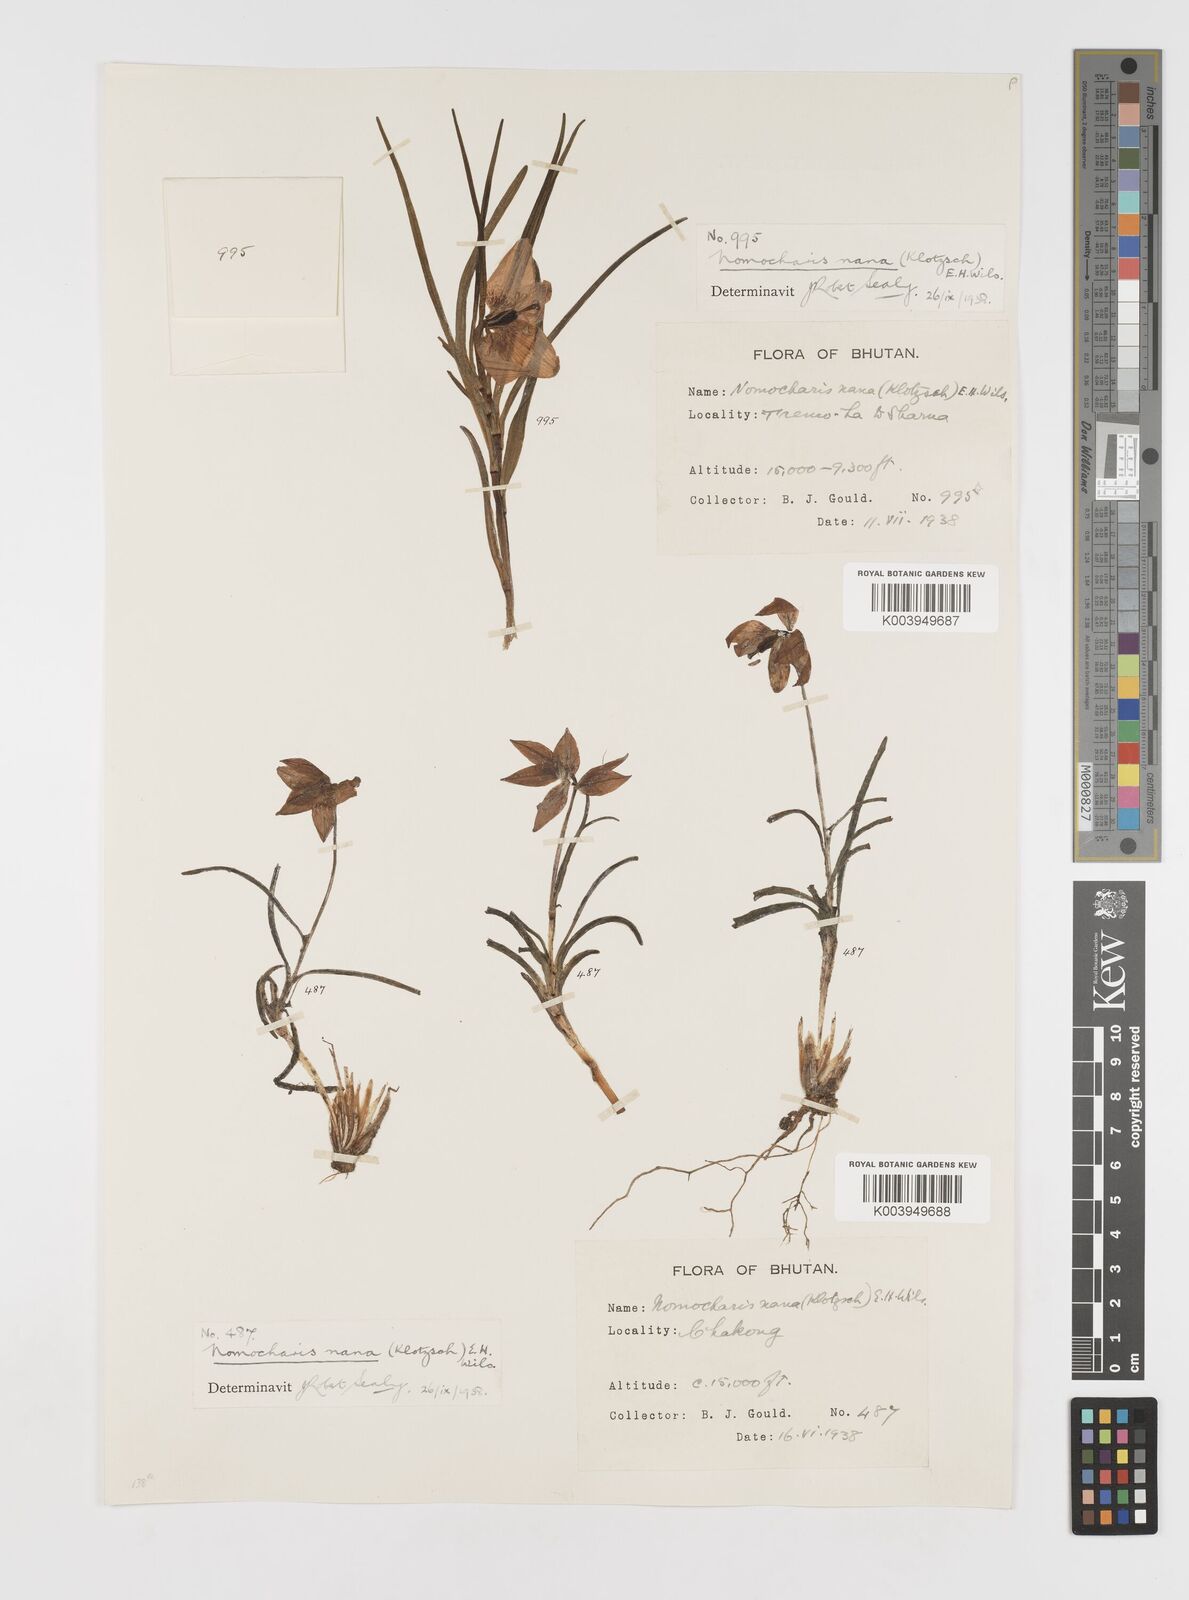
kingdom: Plantae
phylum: Tracheophyta
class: Liliopsida
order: Liliales
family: Liliaceae
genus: Lilium
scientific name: Lilium nanum
